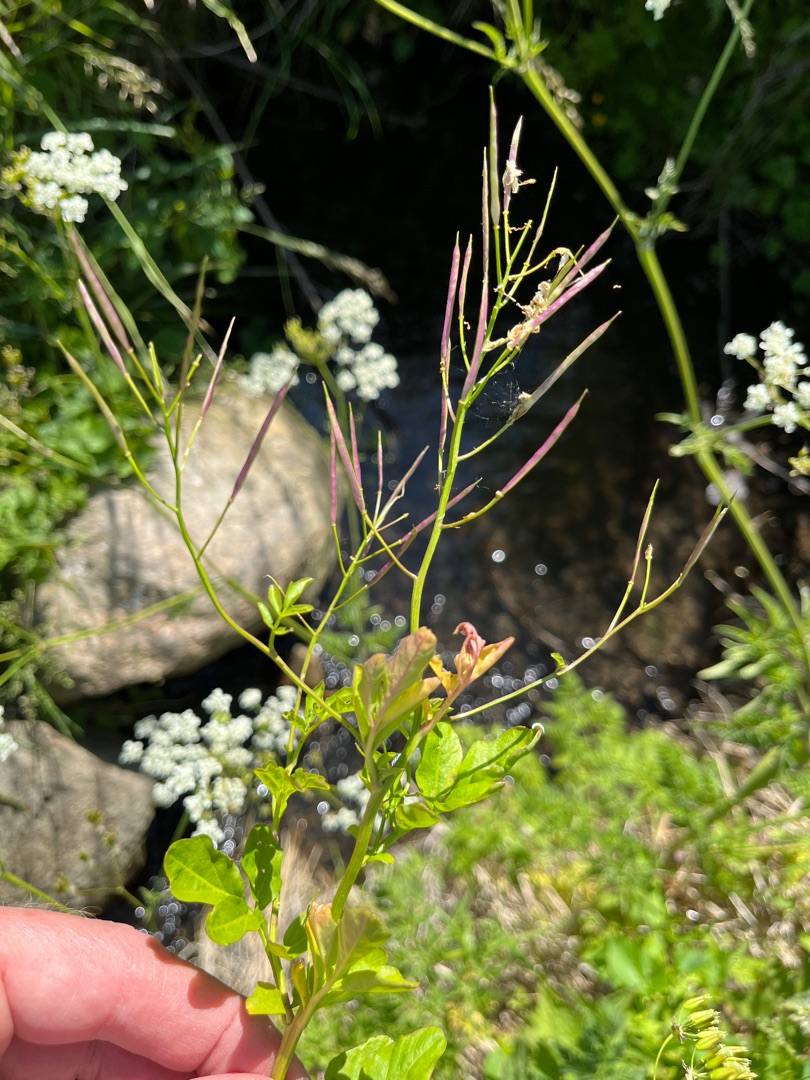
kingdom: Plantae
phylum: Tracheophyta
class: Magnoliopsida
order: Brassicales
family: Brassicaceae
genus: Cardamine
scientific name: Cardamine amara
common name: Vandkarse
